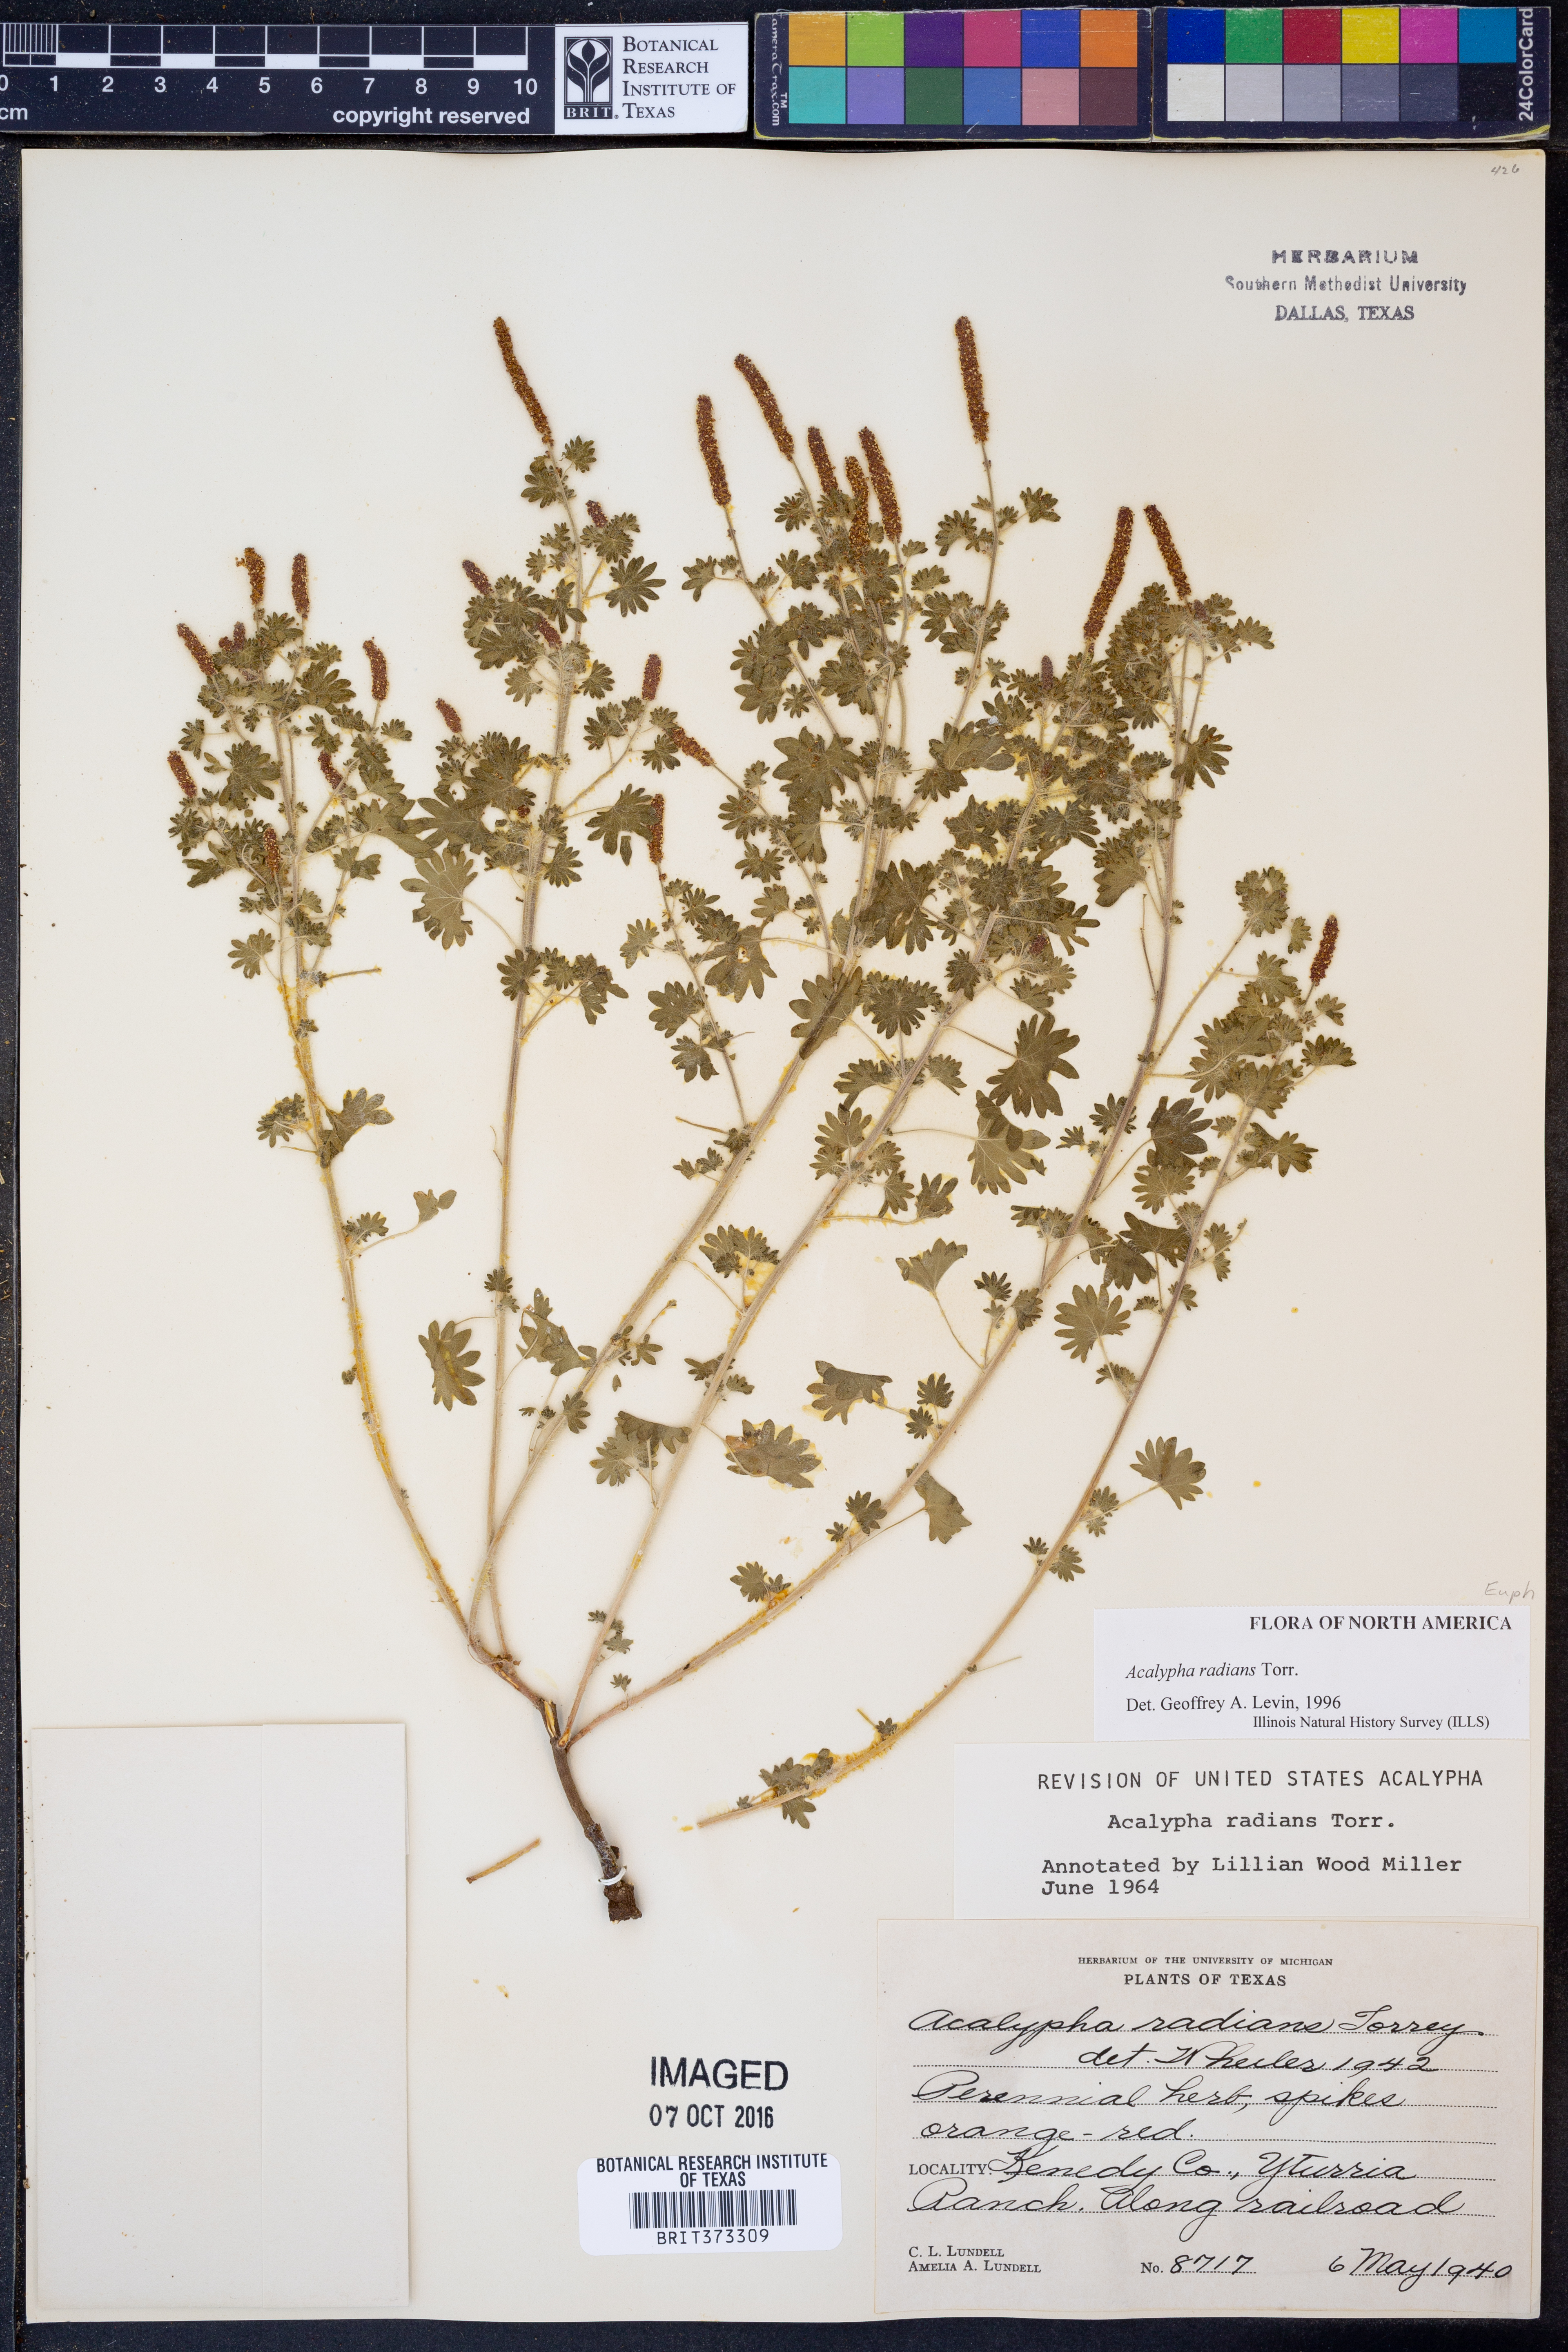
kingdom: Plantae
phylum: Tracheophyta
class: Magnoliopsida
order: Malpighiales
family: Euphorbiaceae
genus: Acalypha
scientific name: Acalypha radians
